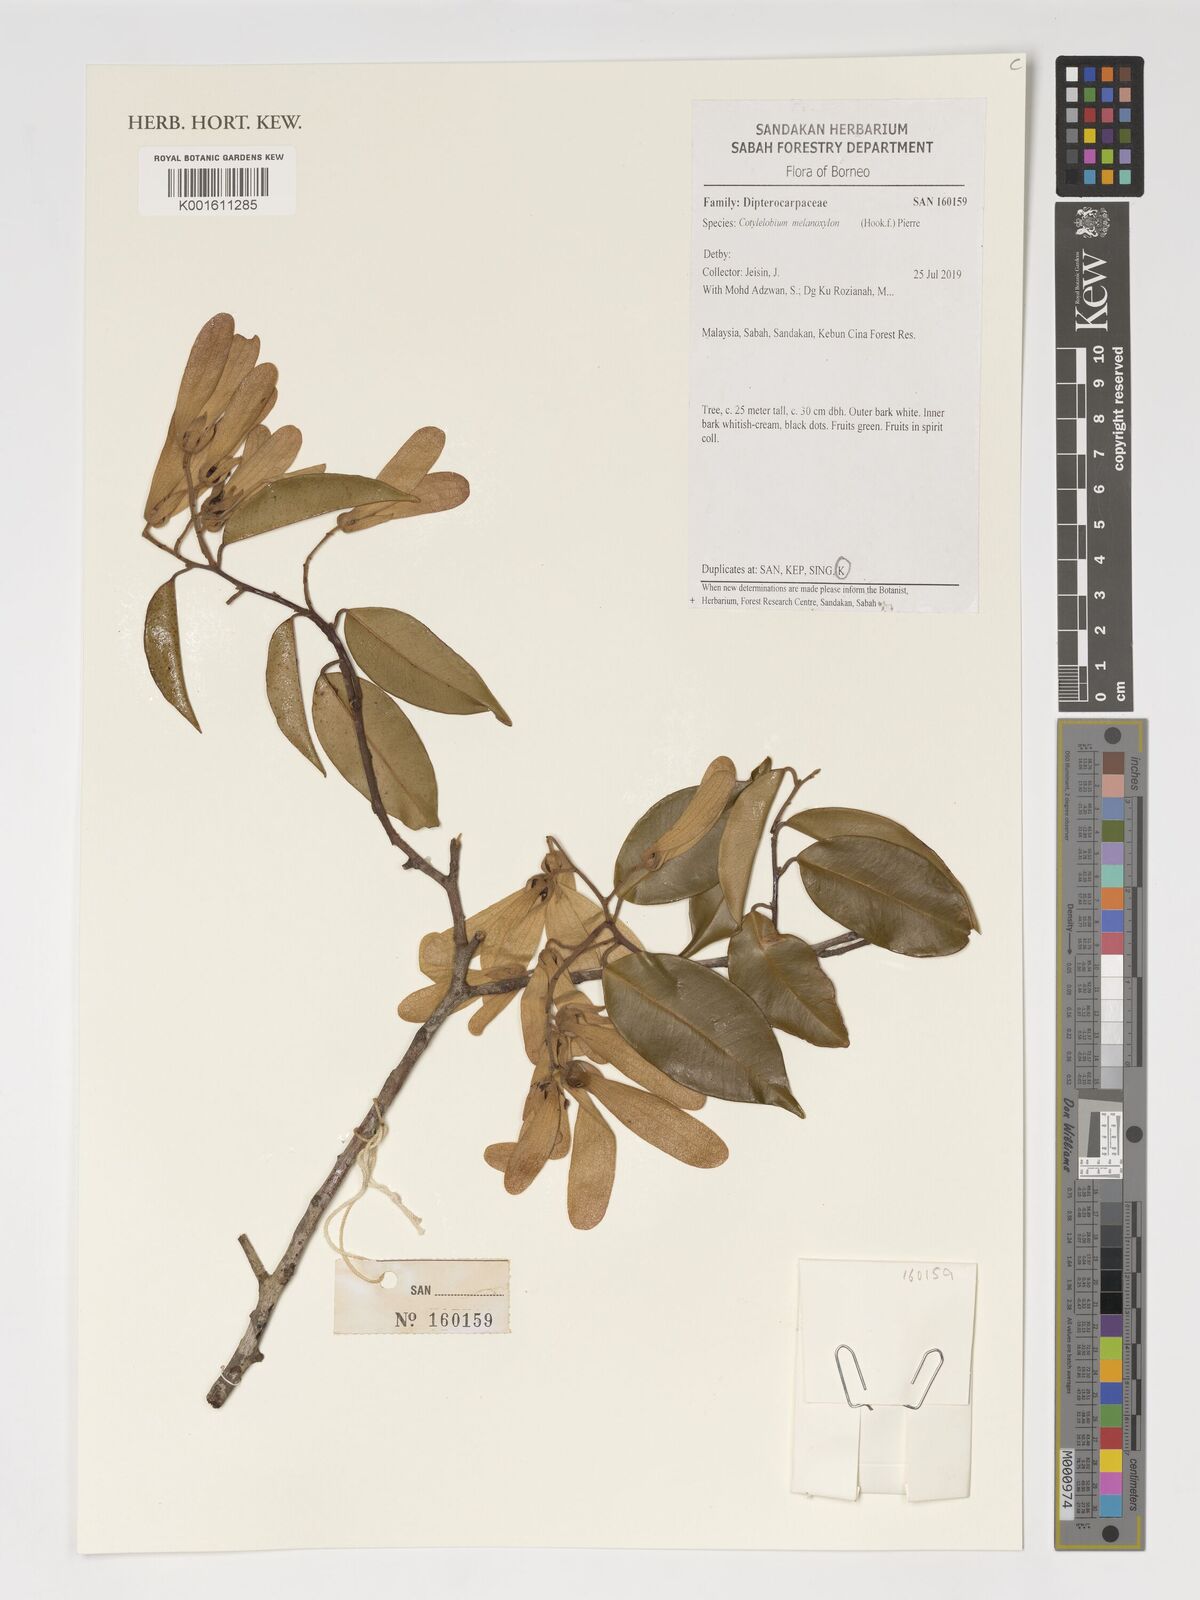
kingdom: Plantae
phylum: Tracheophyta
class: Magnoliopsida
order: Malvales
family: Dipterocarpaceae
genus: Cotylelobium
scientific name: Cotylelobium melanoxylon
